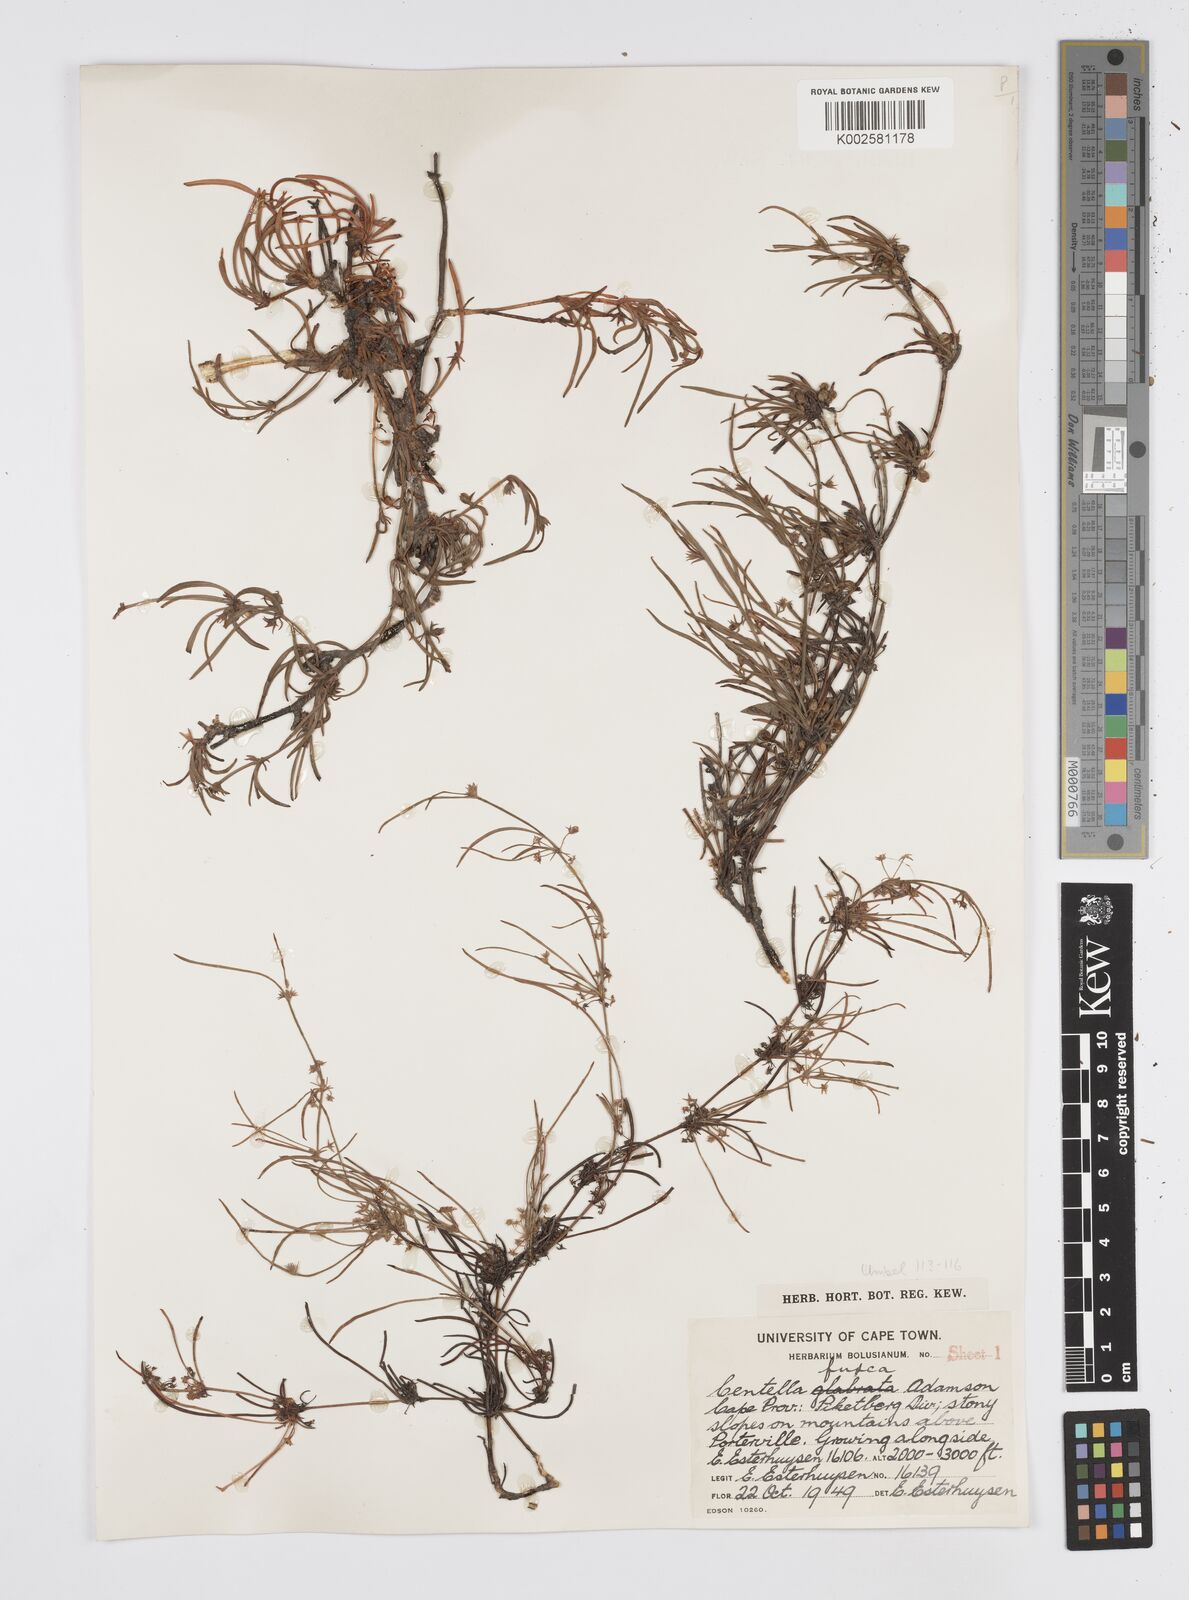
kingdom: Plantae
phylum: Tracheophyta
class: Magnoliopsida
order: Apiales
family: Apiaceae
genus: Centella
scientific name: Centella fusca
